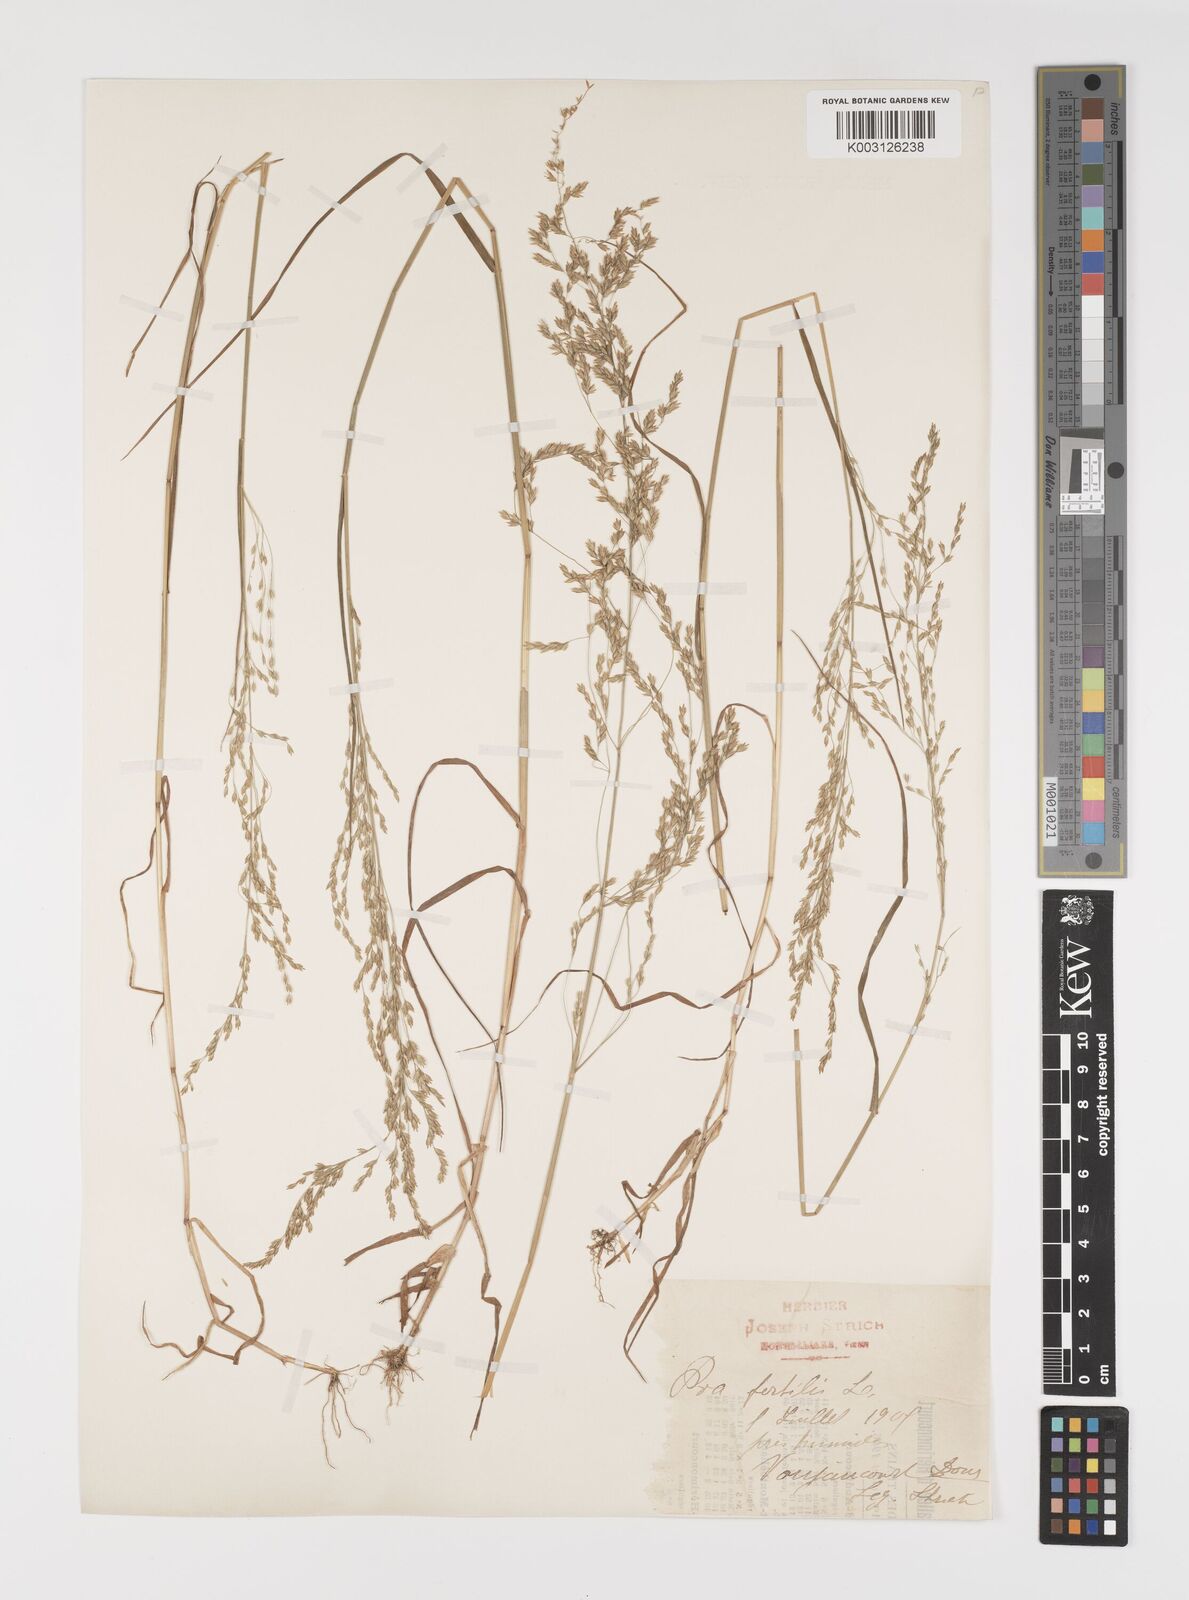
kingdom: Plantae
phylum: Tracheophyta
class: Liliopsida
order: Poales
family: Poaceae
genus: Poa
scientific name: Poa palustris
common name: Swamp meadow-grass
